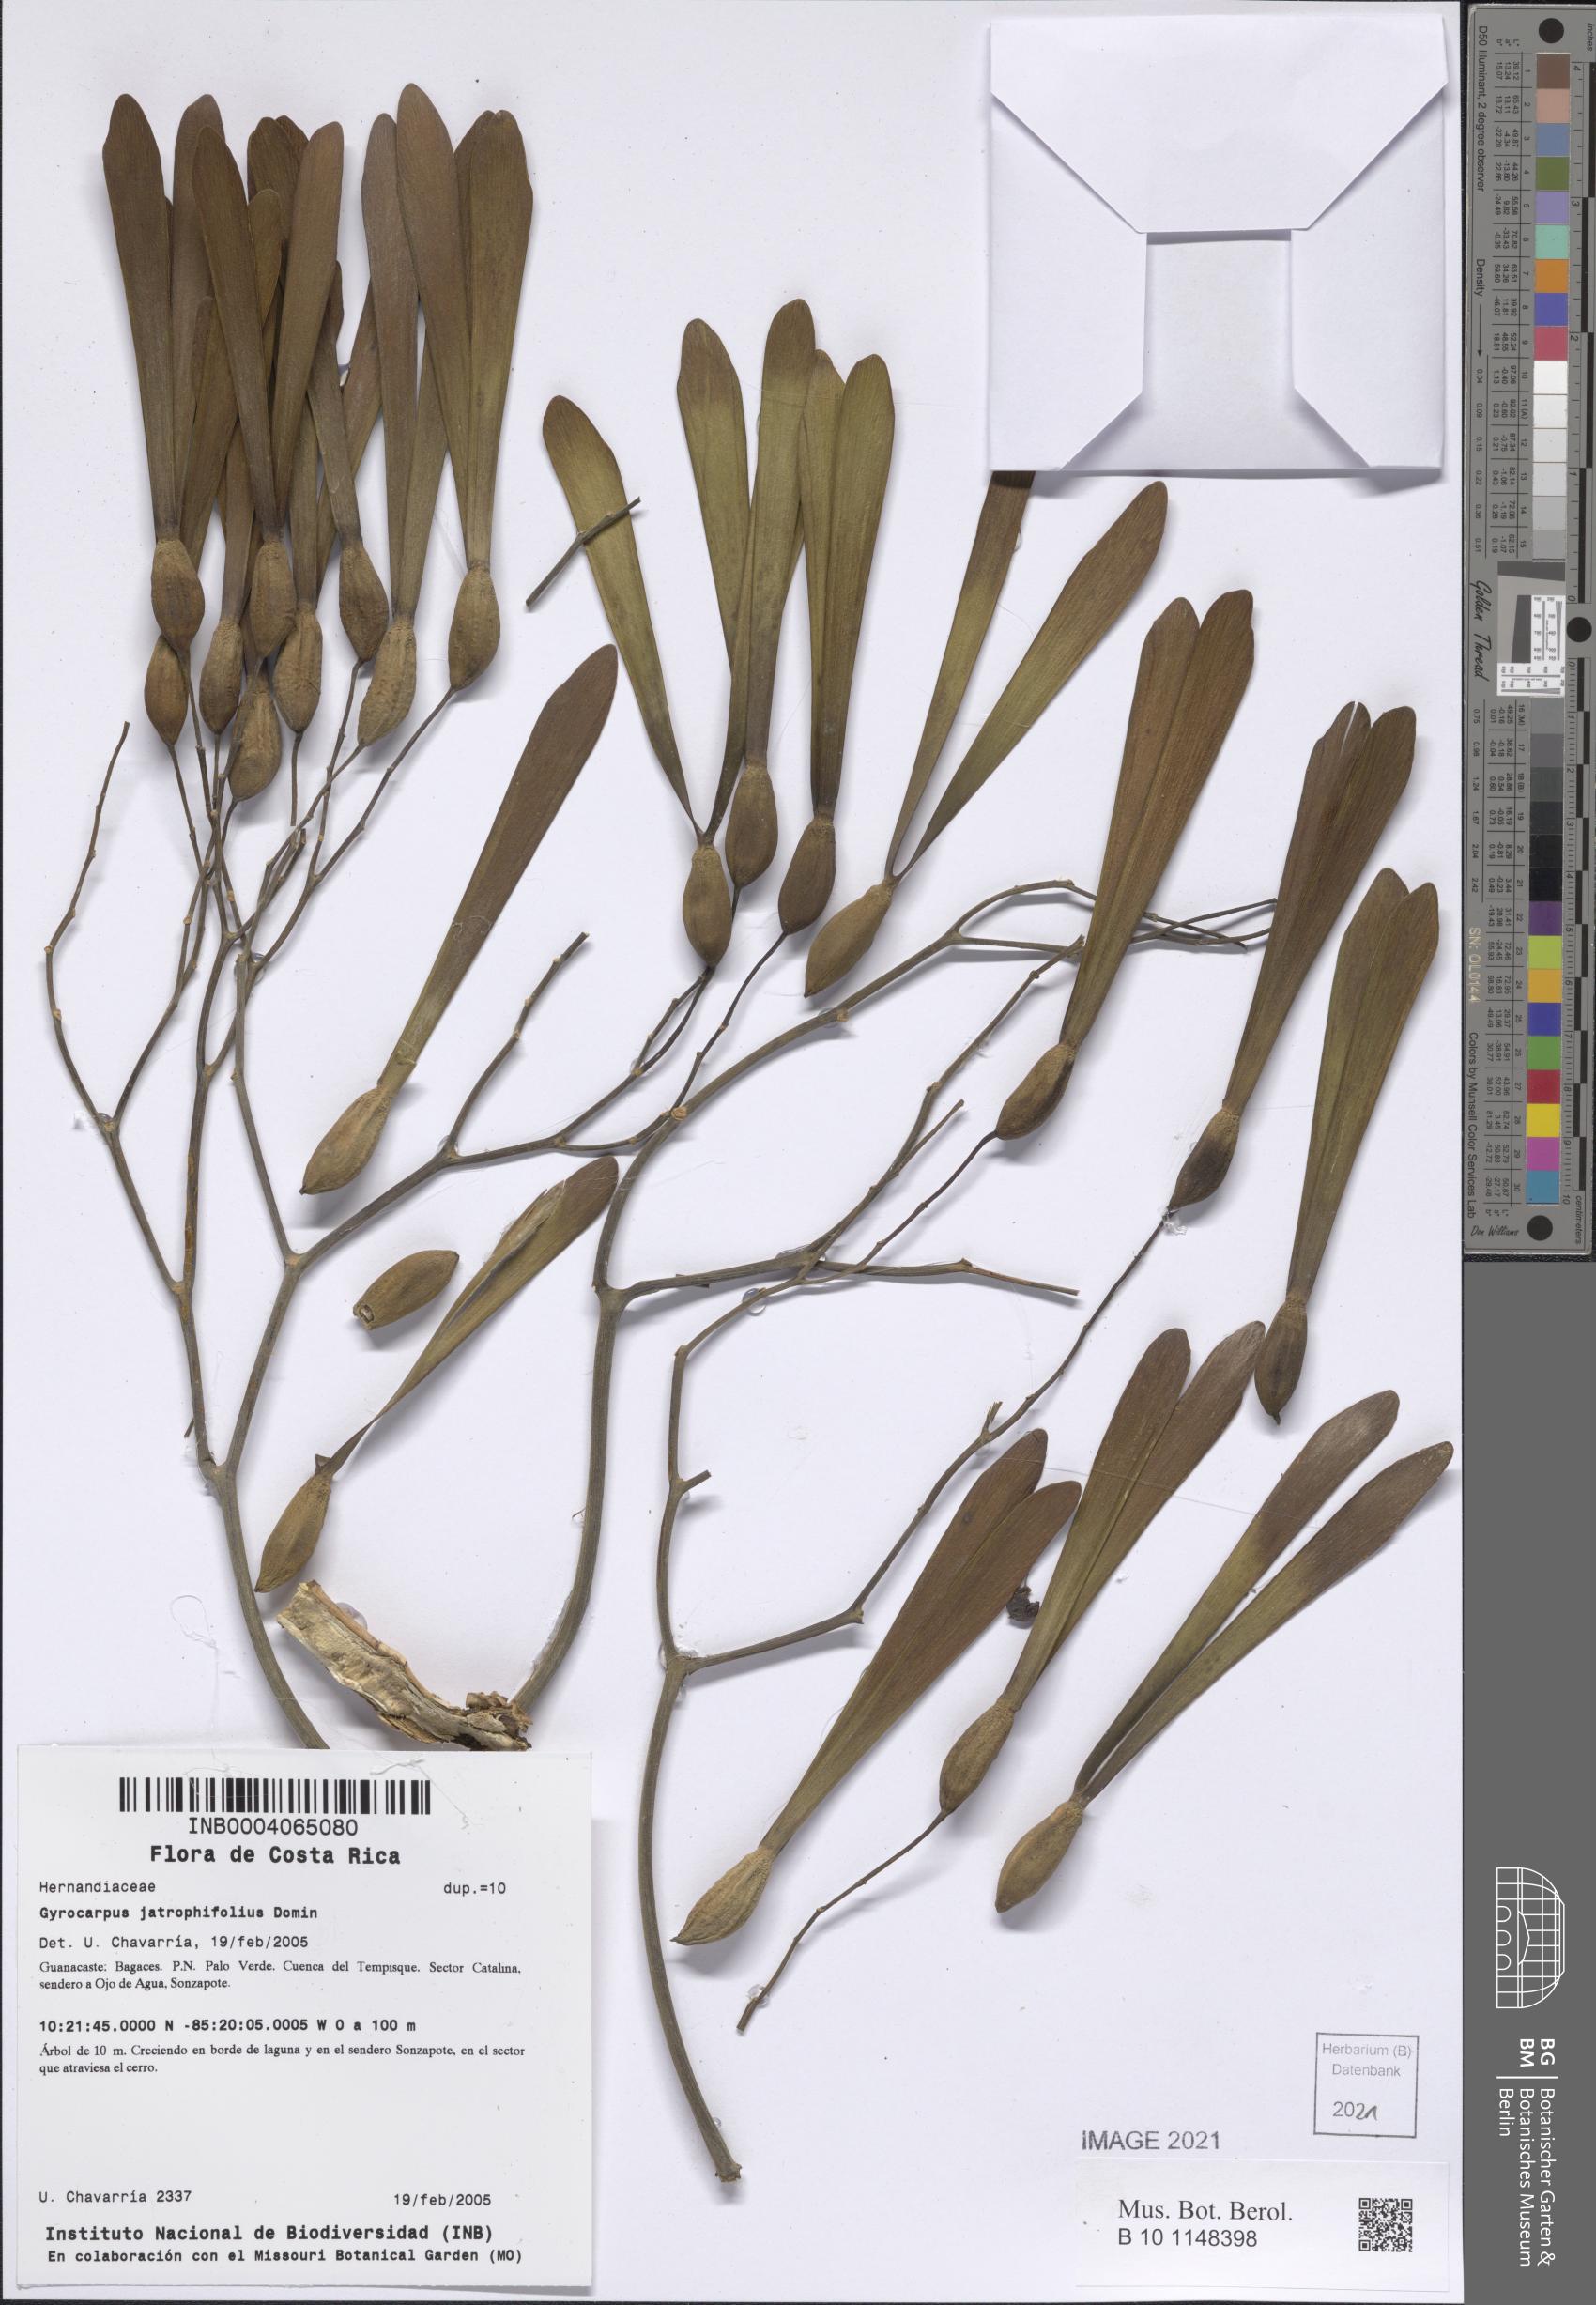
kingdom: Plantae
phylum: Tracheophyta
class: Magnoliopsida
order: Laurales
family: Hernandiaceae
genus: Gyrocarpus
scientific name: Gyrocarpus jatrophifolius
